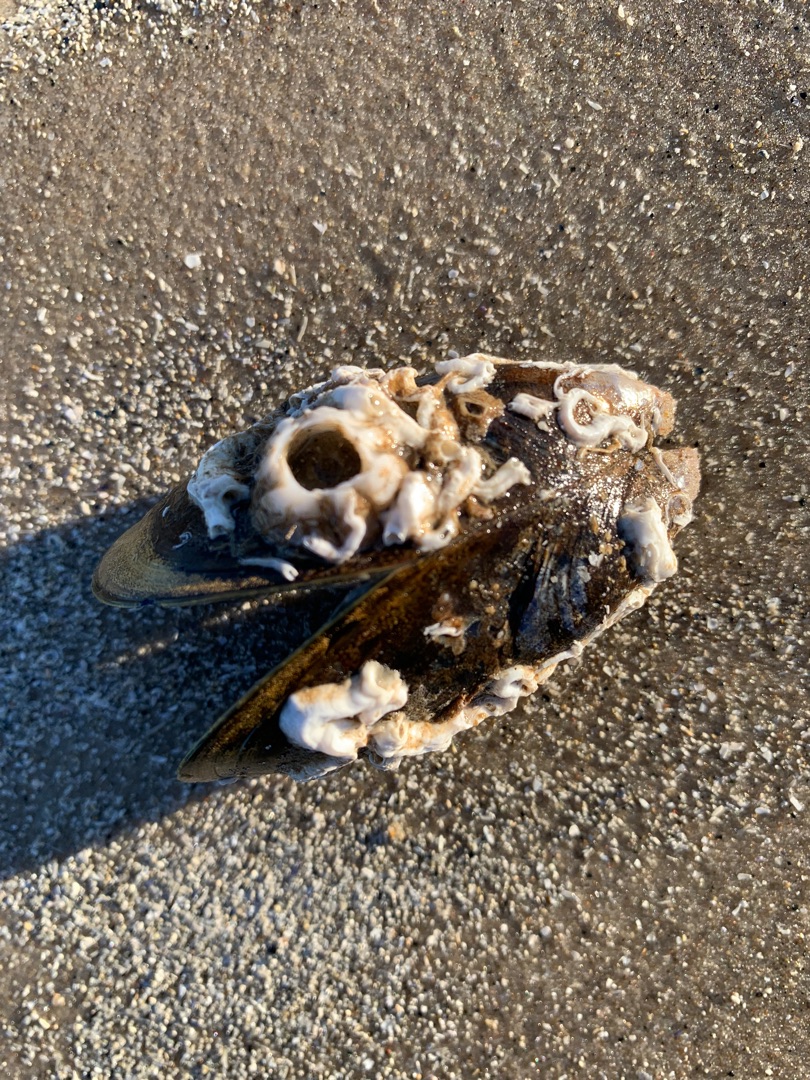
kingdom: Animalia
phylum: Mollusca
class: Bivalvia
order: Mytilida
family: Mytilidae
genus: Mytilus
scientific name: Mytilus edulis
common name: Blåmusling
